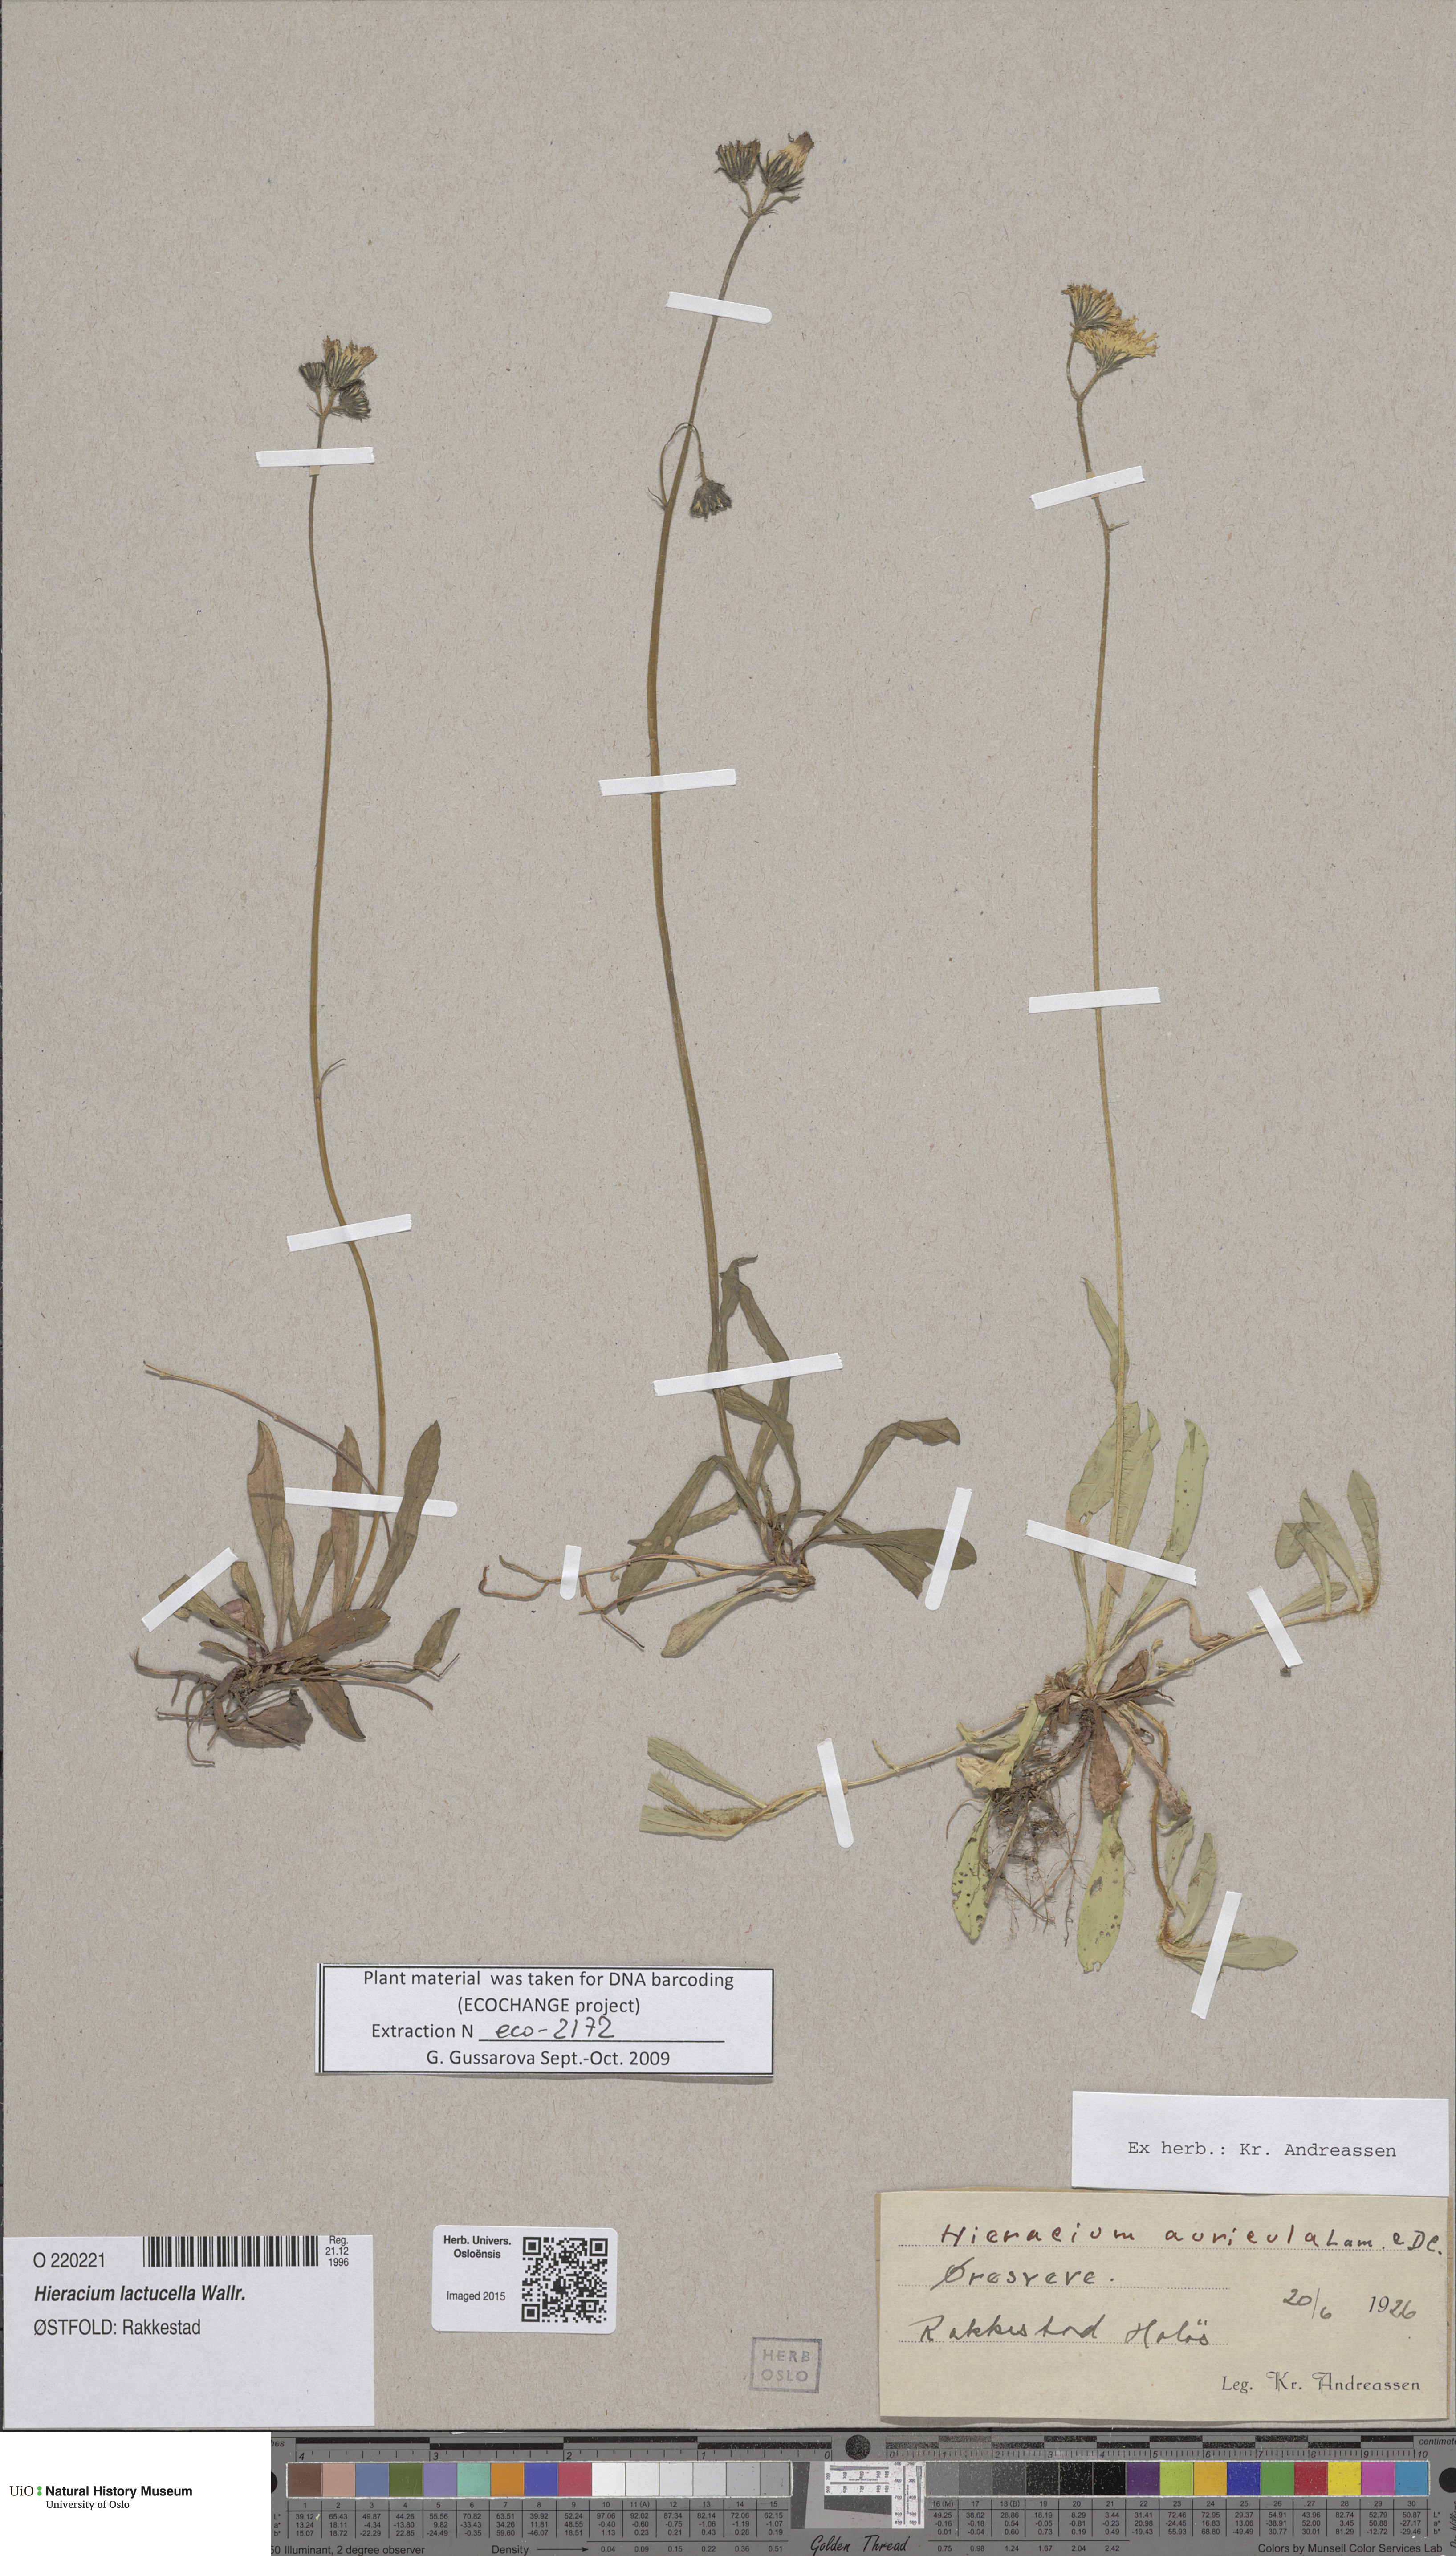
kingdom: Plantae
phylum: Tracheophyta
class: Magnoliopsida
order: Asterales
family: Asteraceae
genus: Pilosella
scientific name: Pilosella lactucella
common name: Glaucous fox-and-cubs
